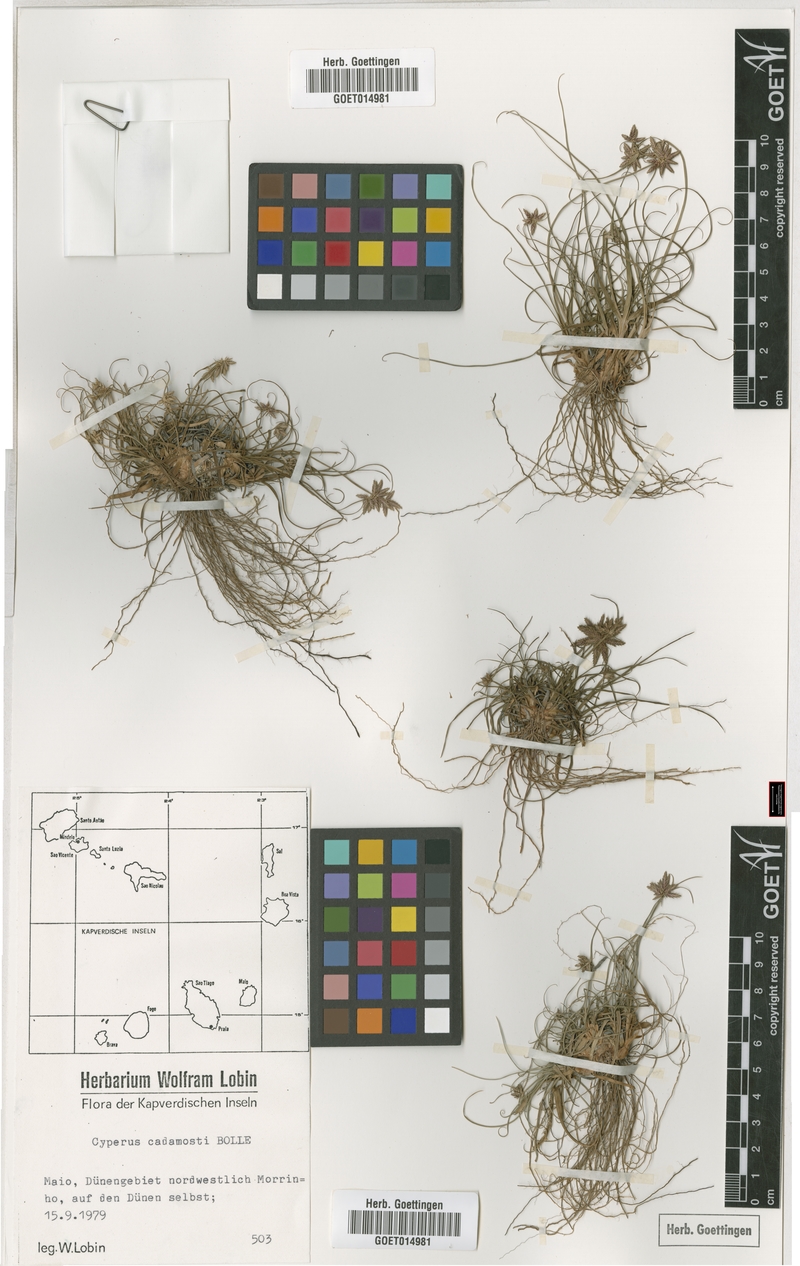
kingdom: Plantae
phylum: Tracheophyta
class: Liliopsida
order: Poales
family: Cyperaceae
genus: Cyperus
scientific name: Cyperus jeminicus
